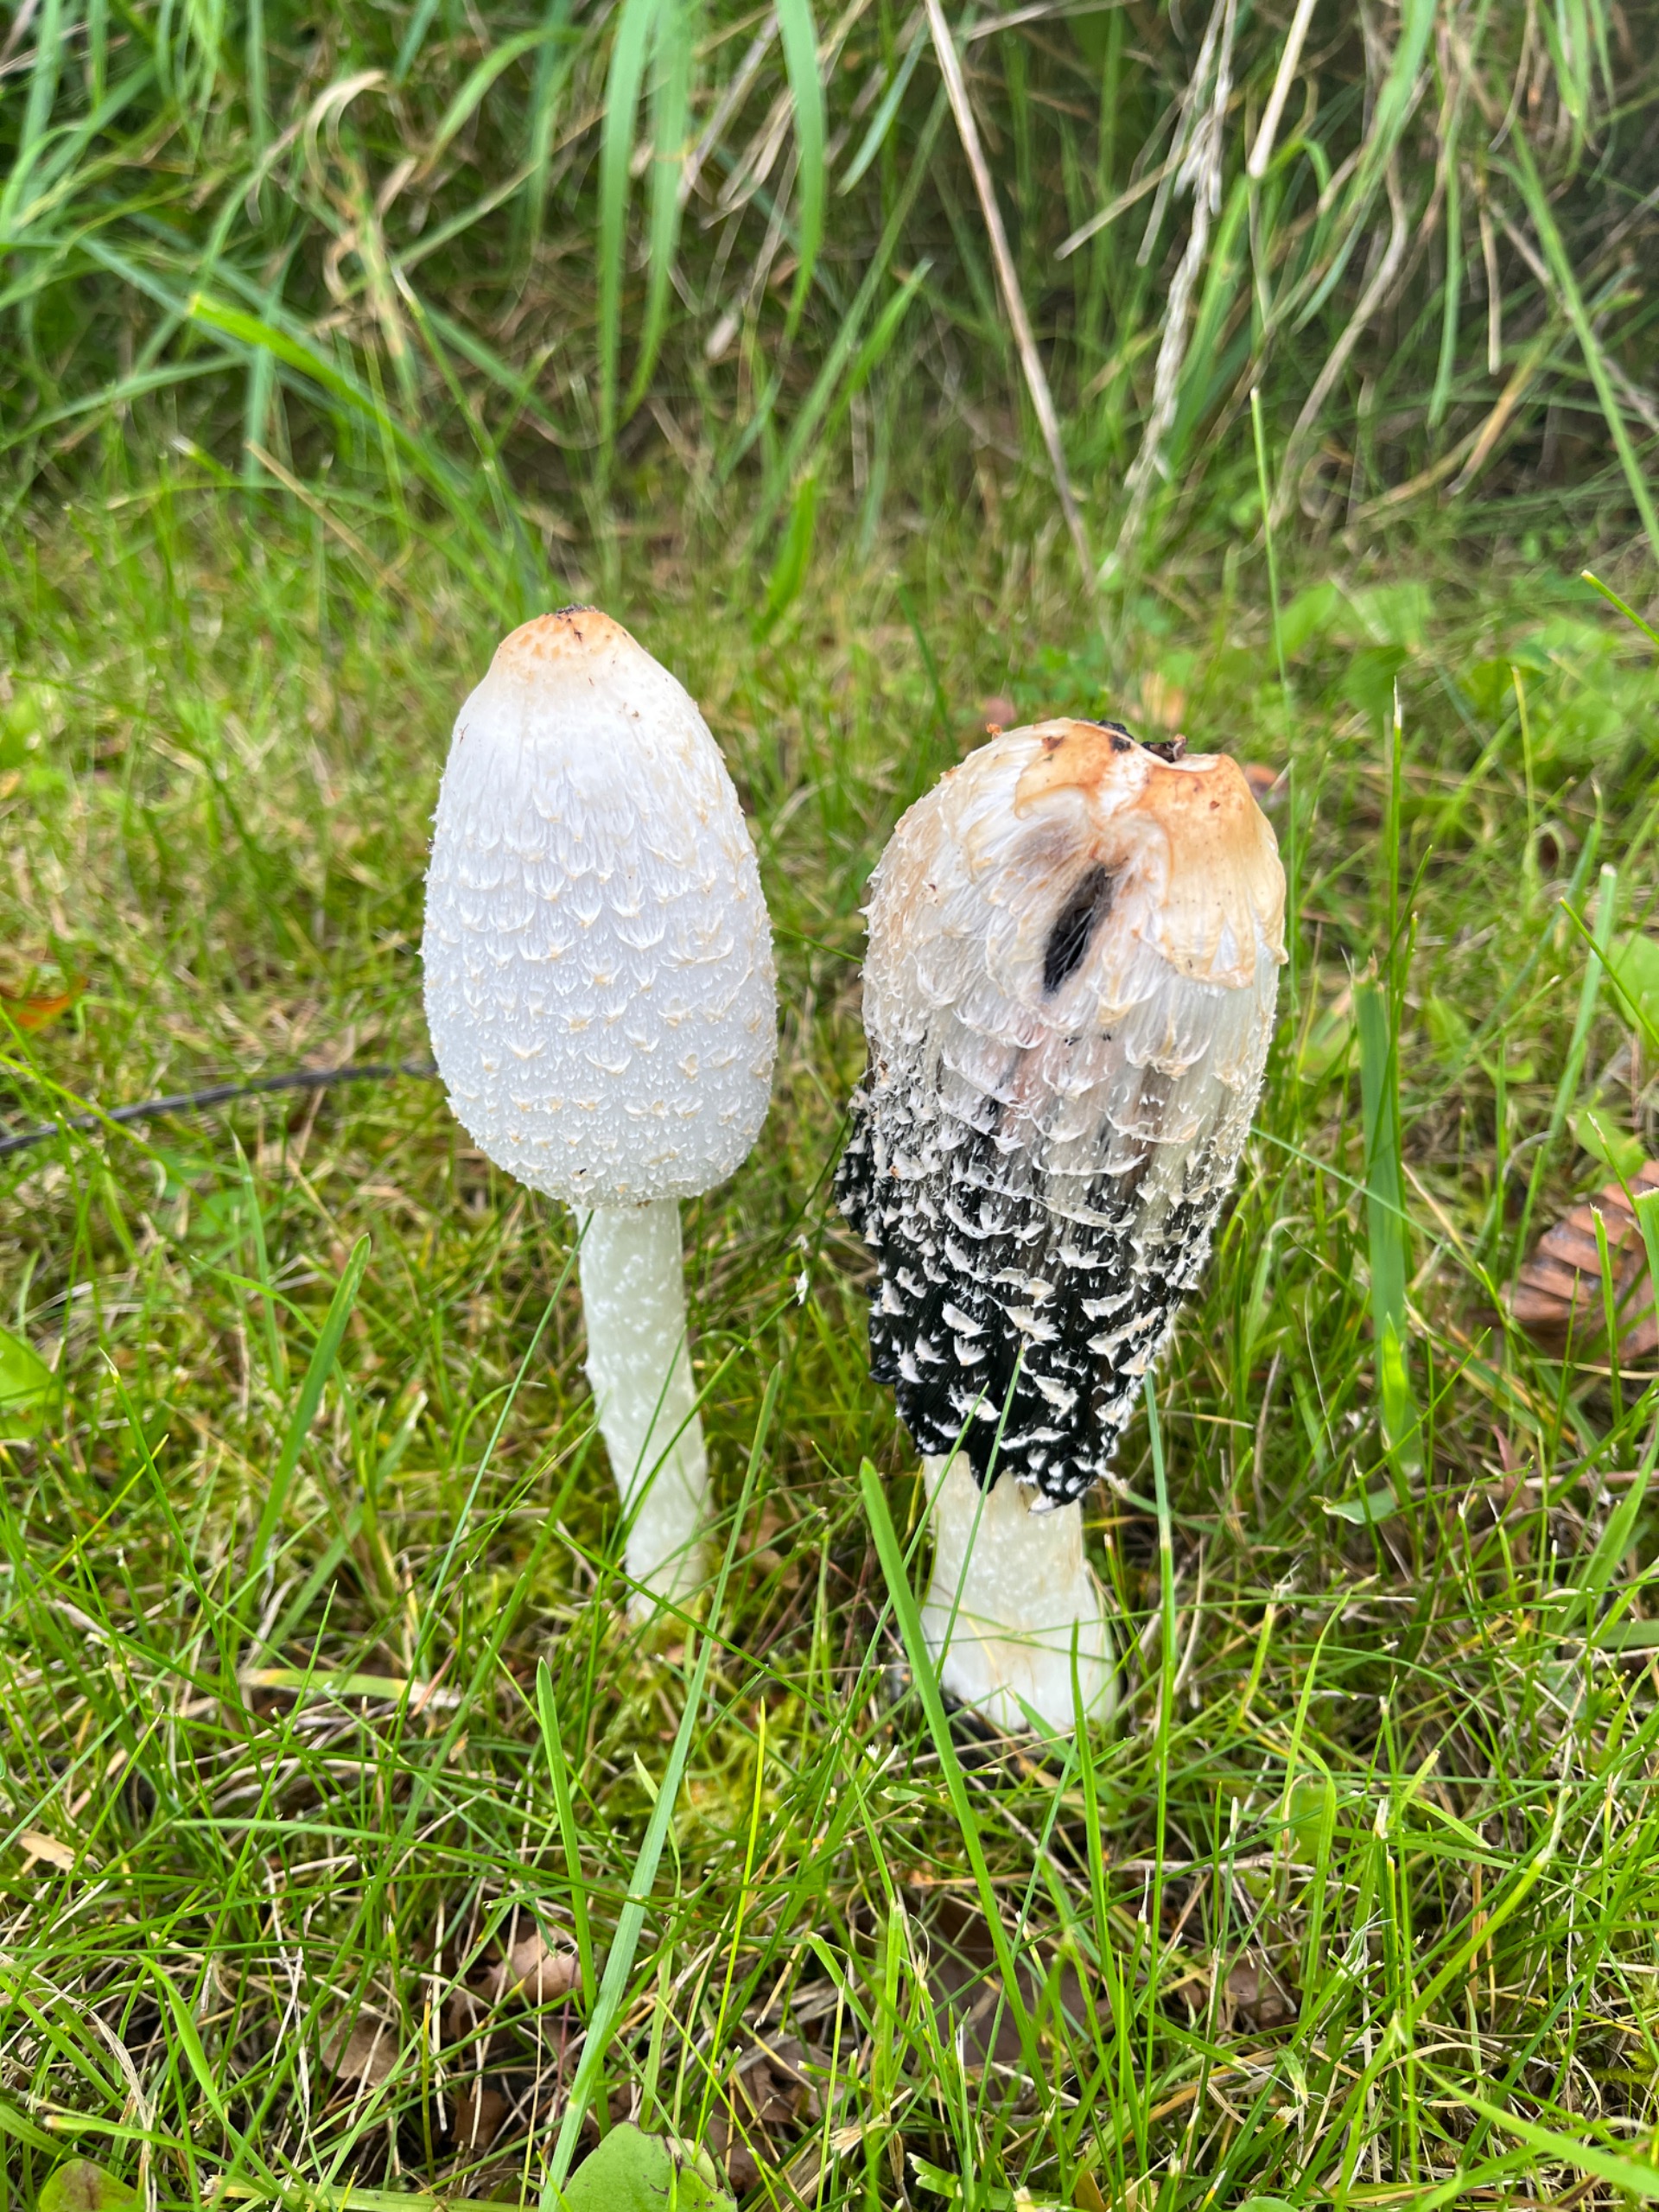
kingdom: Fungi
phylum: Basidiomycota
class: Agaricomycetes
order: Agaricales
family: Agaricaceae
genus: Coprinus
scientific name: Coprinus comatus
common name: Stor parykhat
